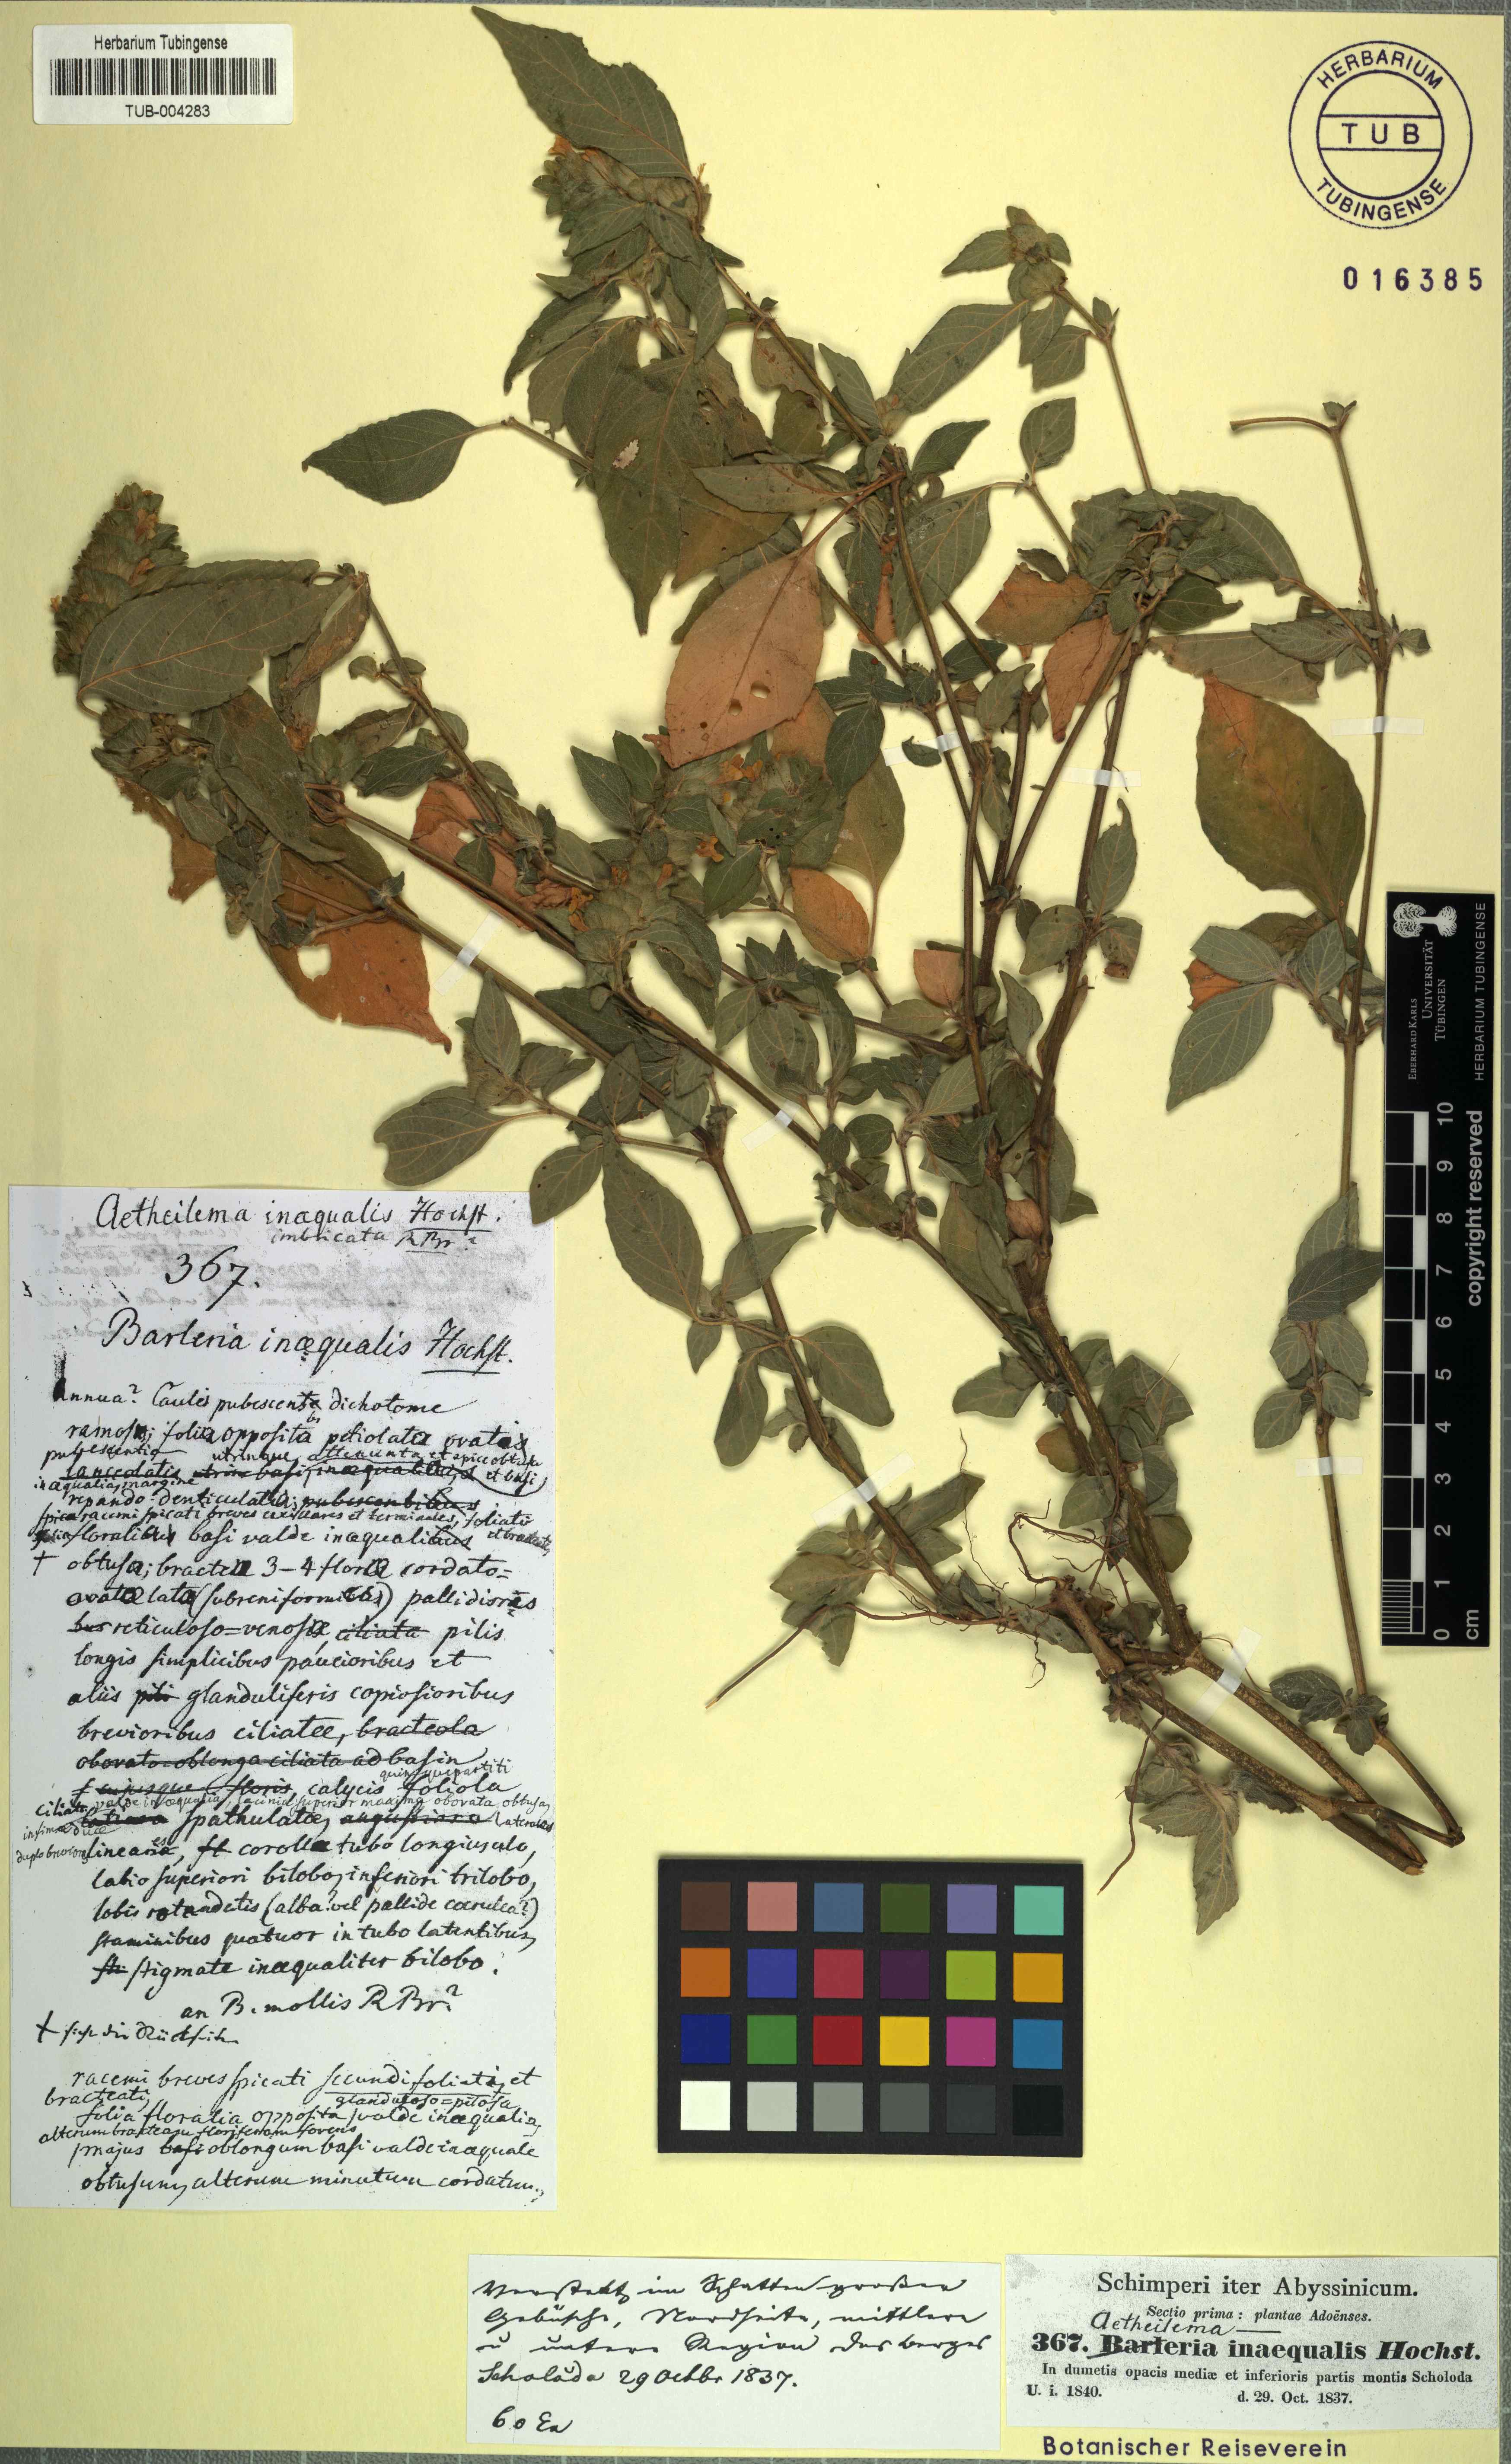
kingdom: Plantae
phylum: Tracheophyta
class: Magnoliopsida
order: Lamiales
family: Acanthaceae
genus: Phaulopsis
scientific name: Phaulopsis barteri
